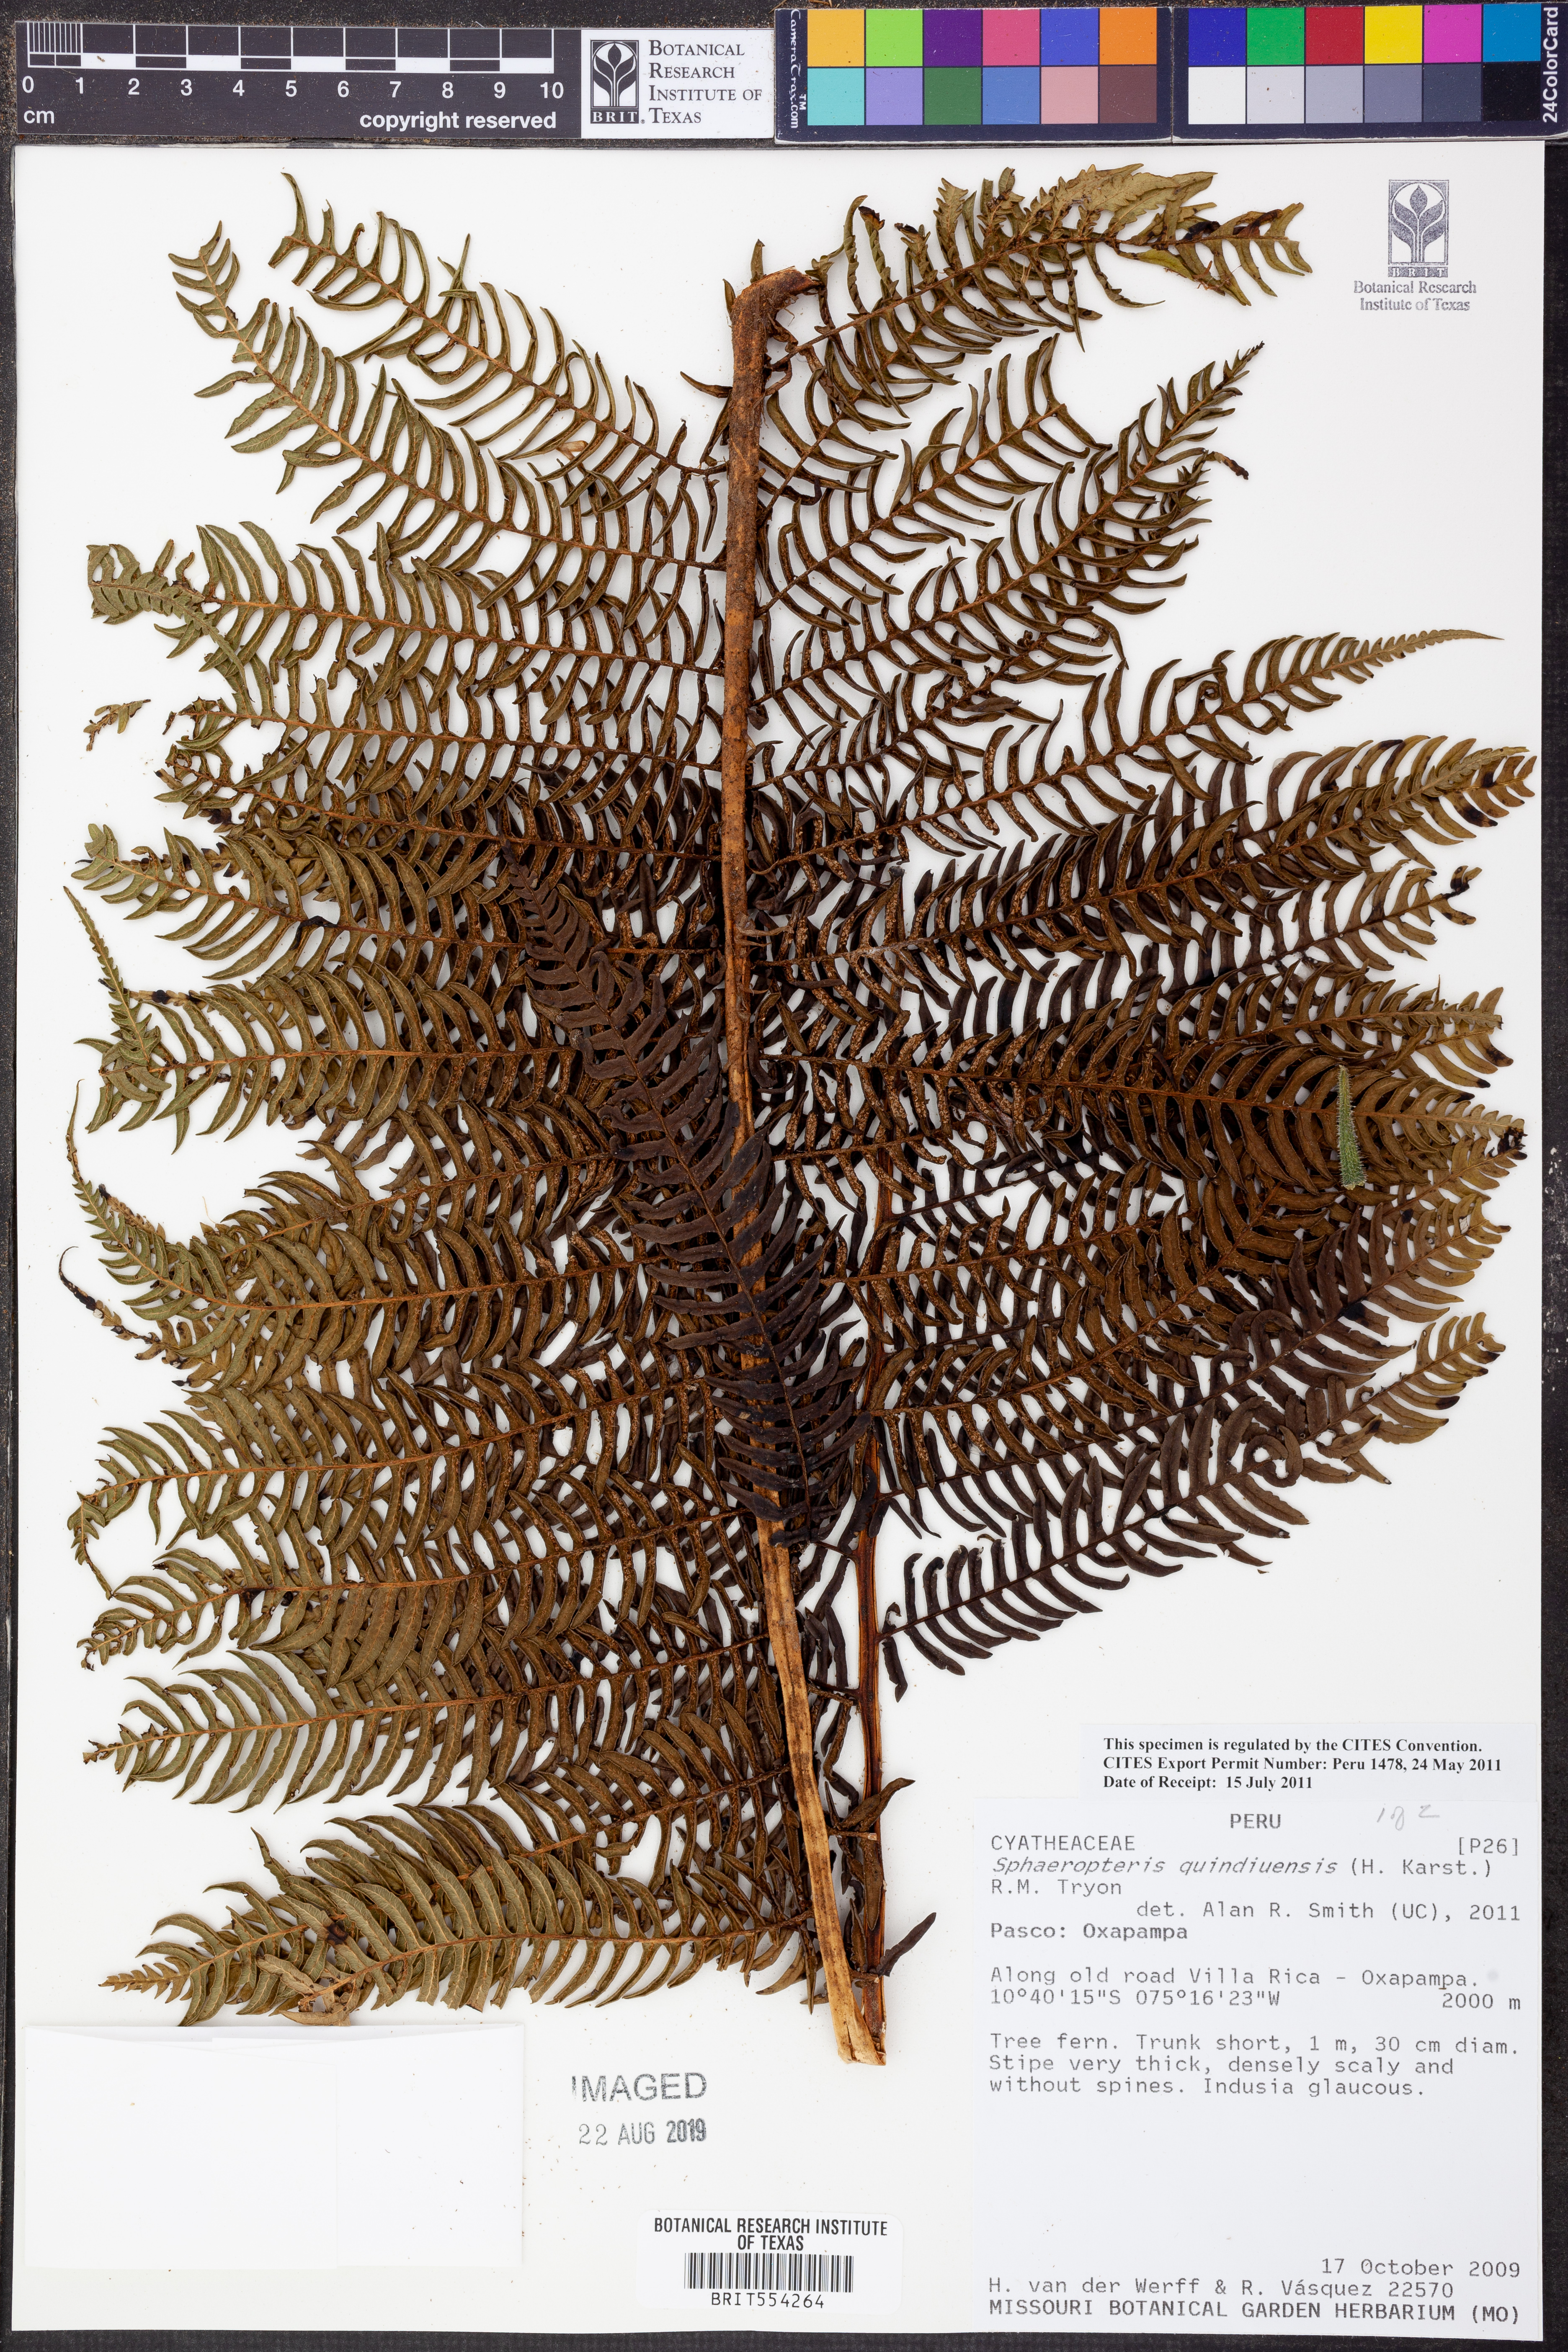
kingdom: Plantae
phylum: Tracheophyta
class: Polypodiopsida
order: Cyatheales
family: Cyatheaceae
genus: Sphaeropteris
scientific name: Sphaeropteris quindiuensis
